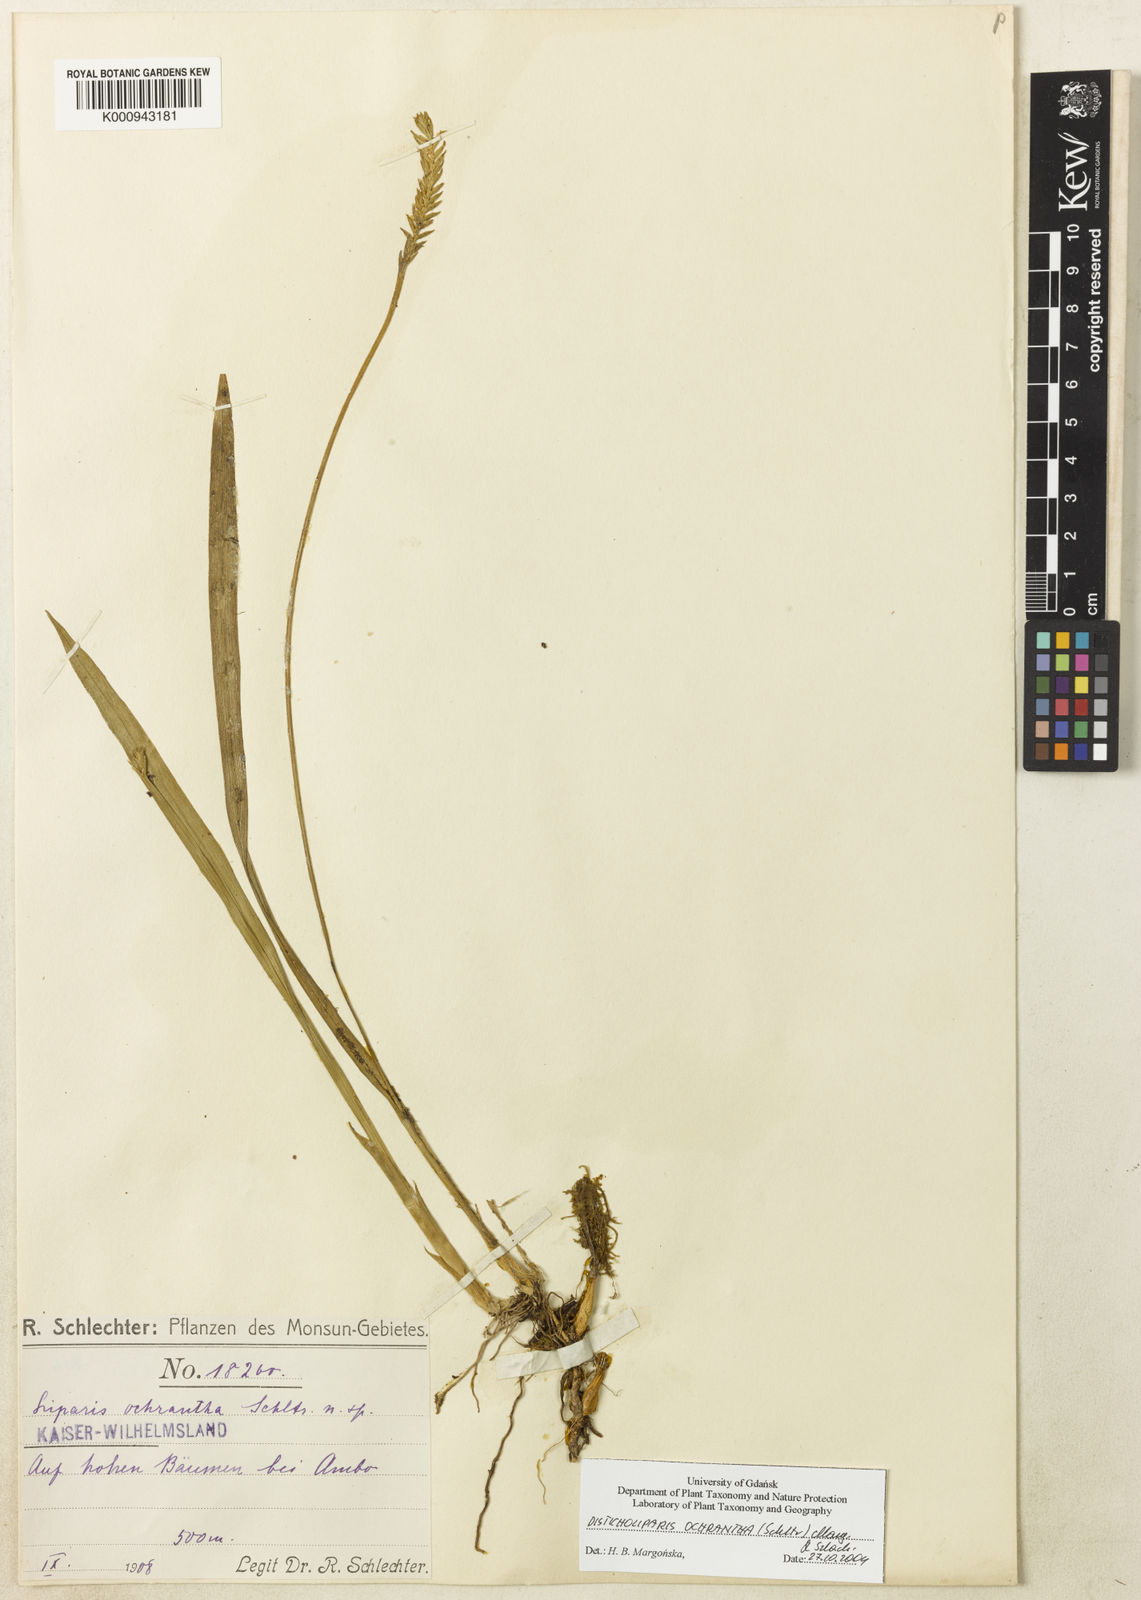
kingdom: Plantae
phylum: Tracheophyta
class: Liliopsida
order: Asparagales
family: Orchidaceae
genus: Liparis
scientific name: Liparis ochrantha
